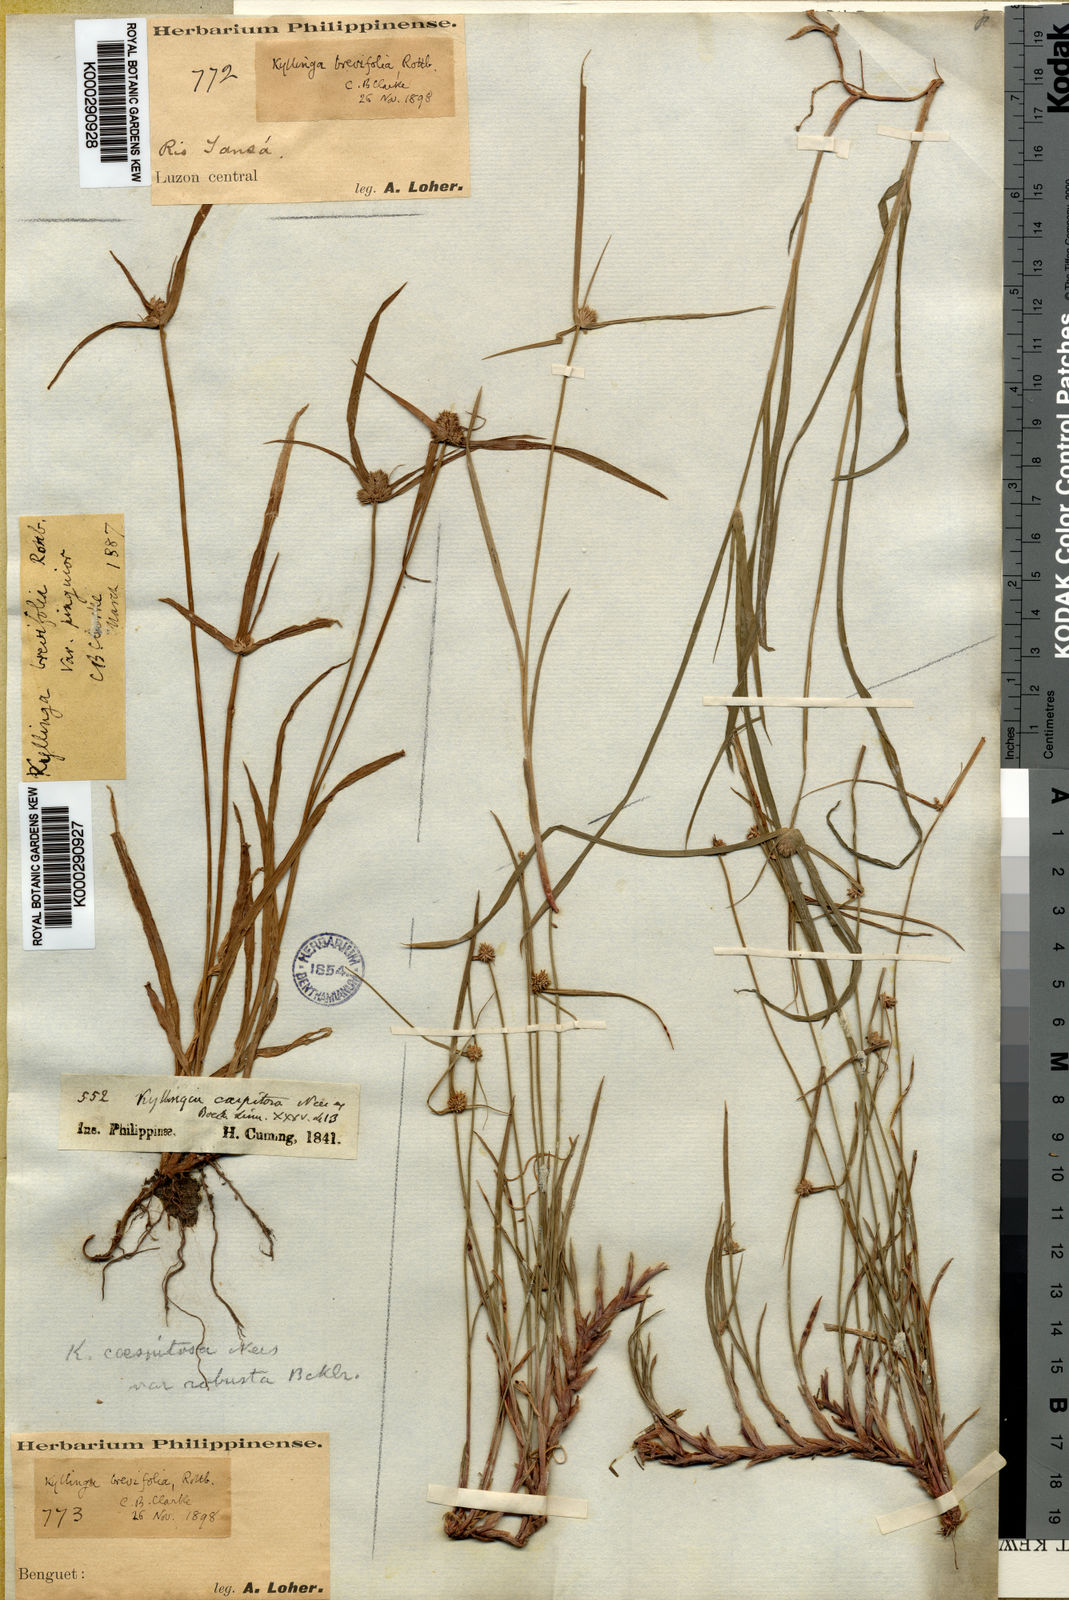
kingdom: Plantae
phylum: Tracheophyta
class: Liliopsida
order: Poales
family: Cyperaceae
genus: Cyperus
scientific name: Cyperus brevifolius
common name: Globe kyllinga
